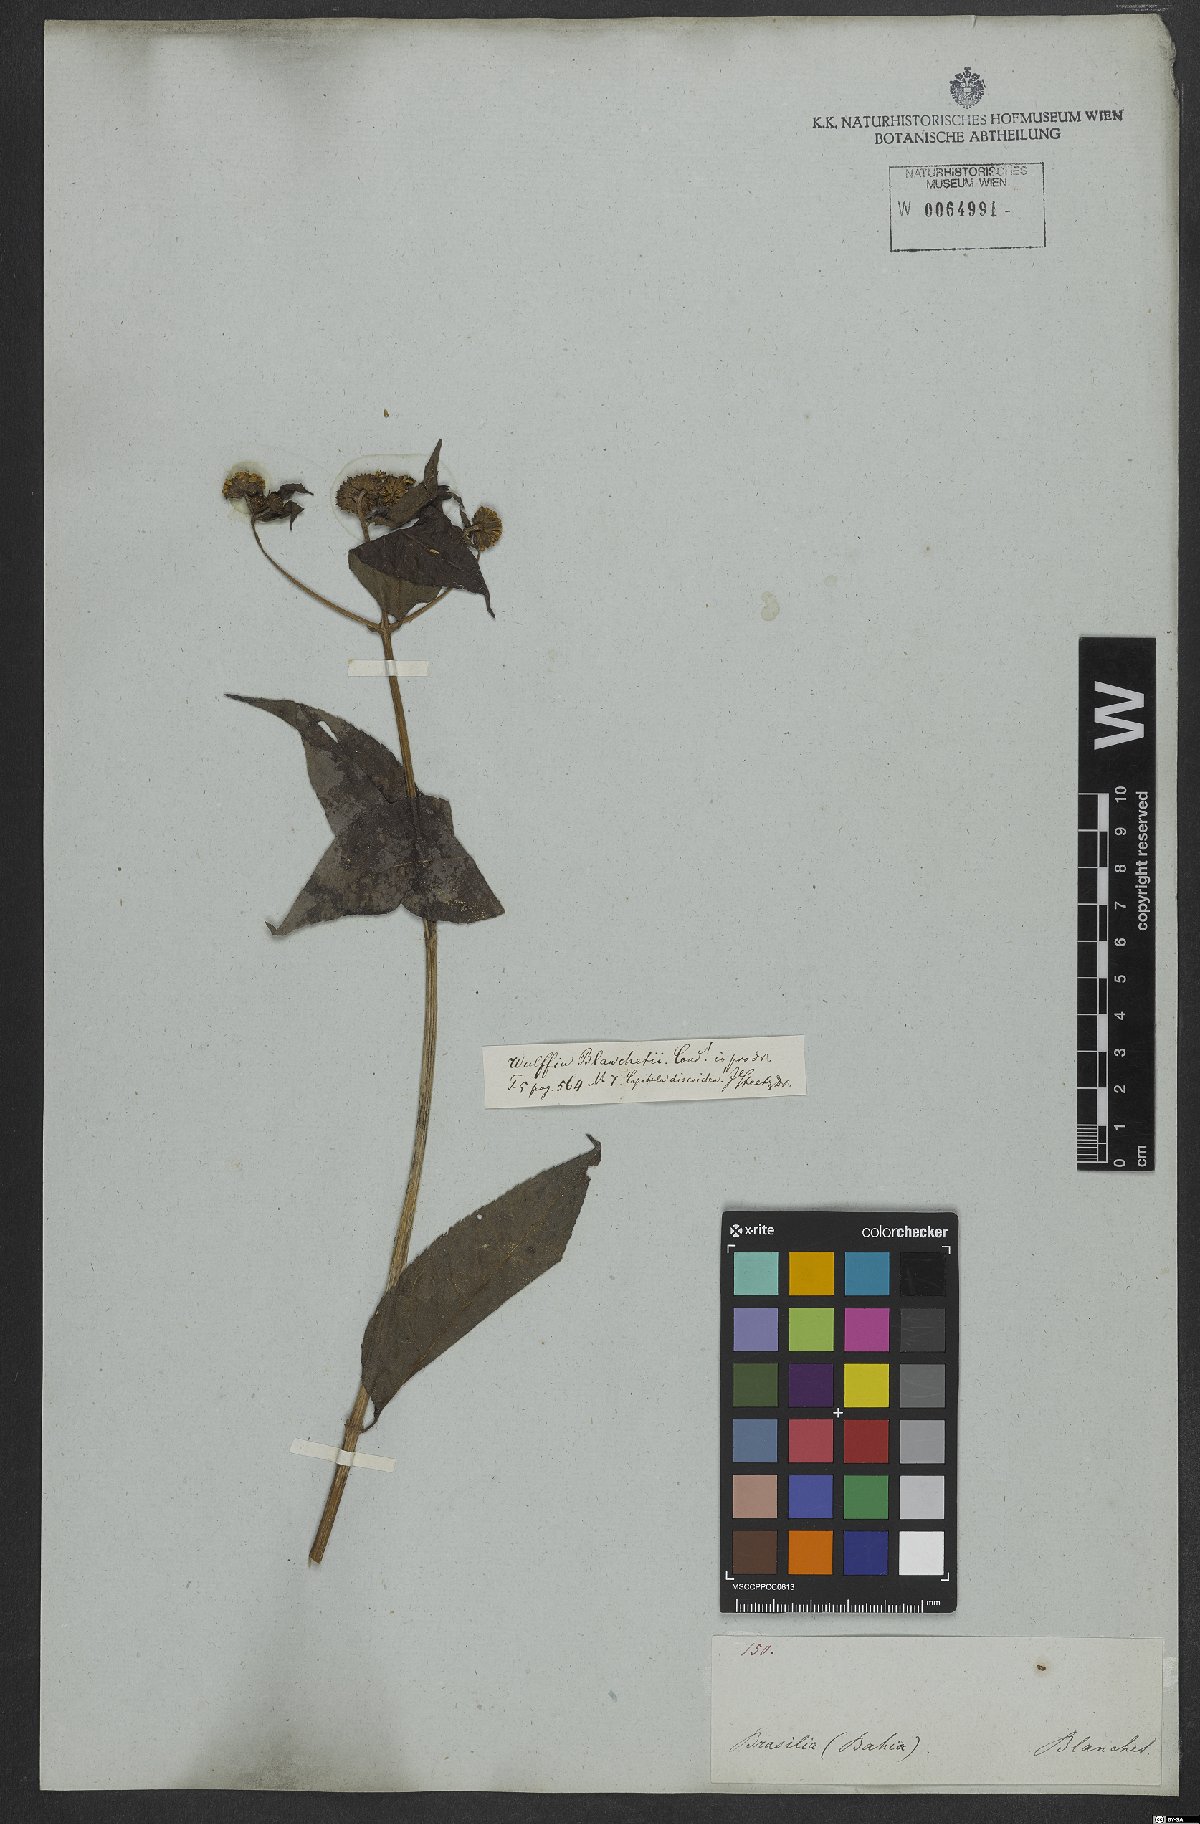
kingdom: Plantae
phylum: Tracheophyta
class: Magnoliopsida
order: Asterales
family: Asteraceae
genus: Tilesia
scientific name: Tilesia baccata
